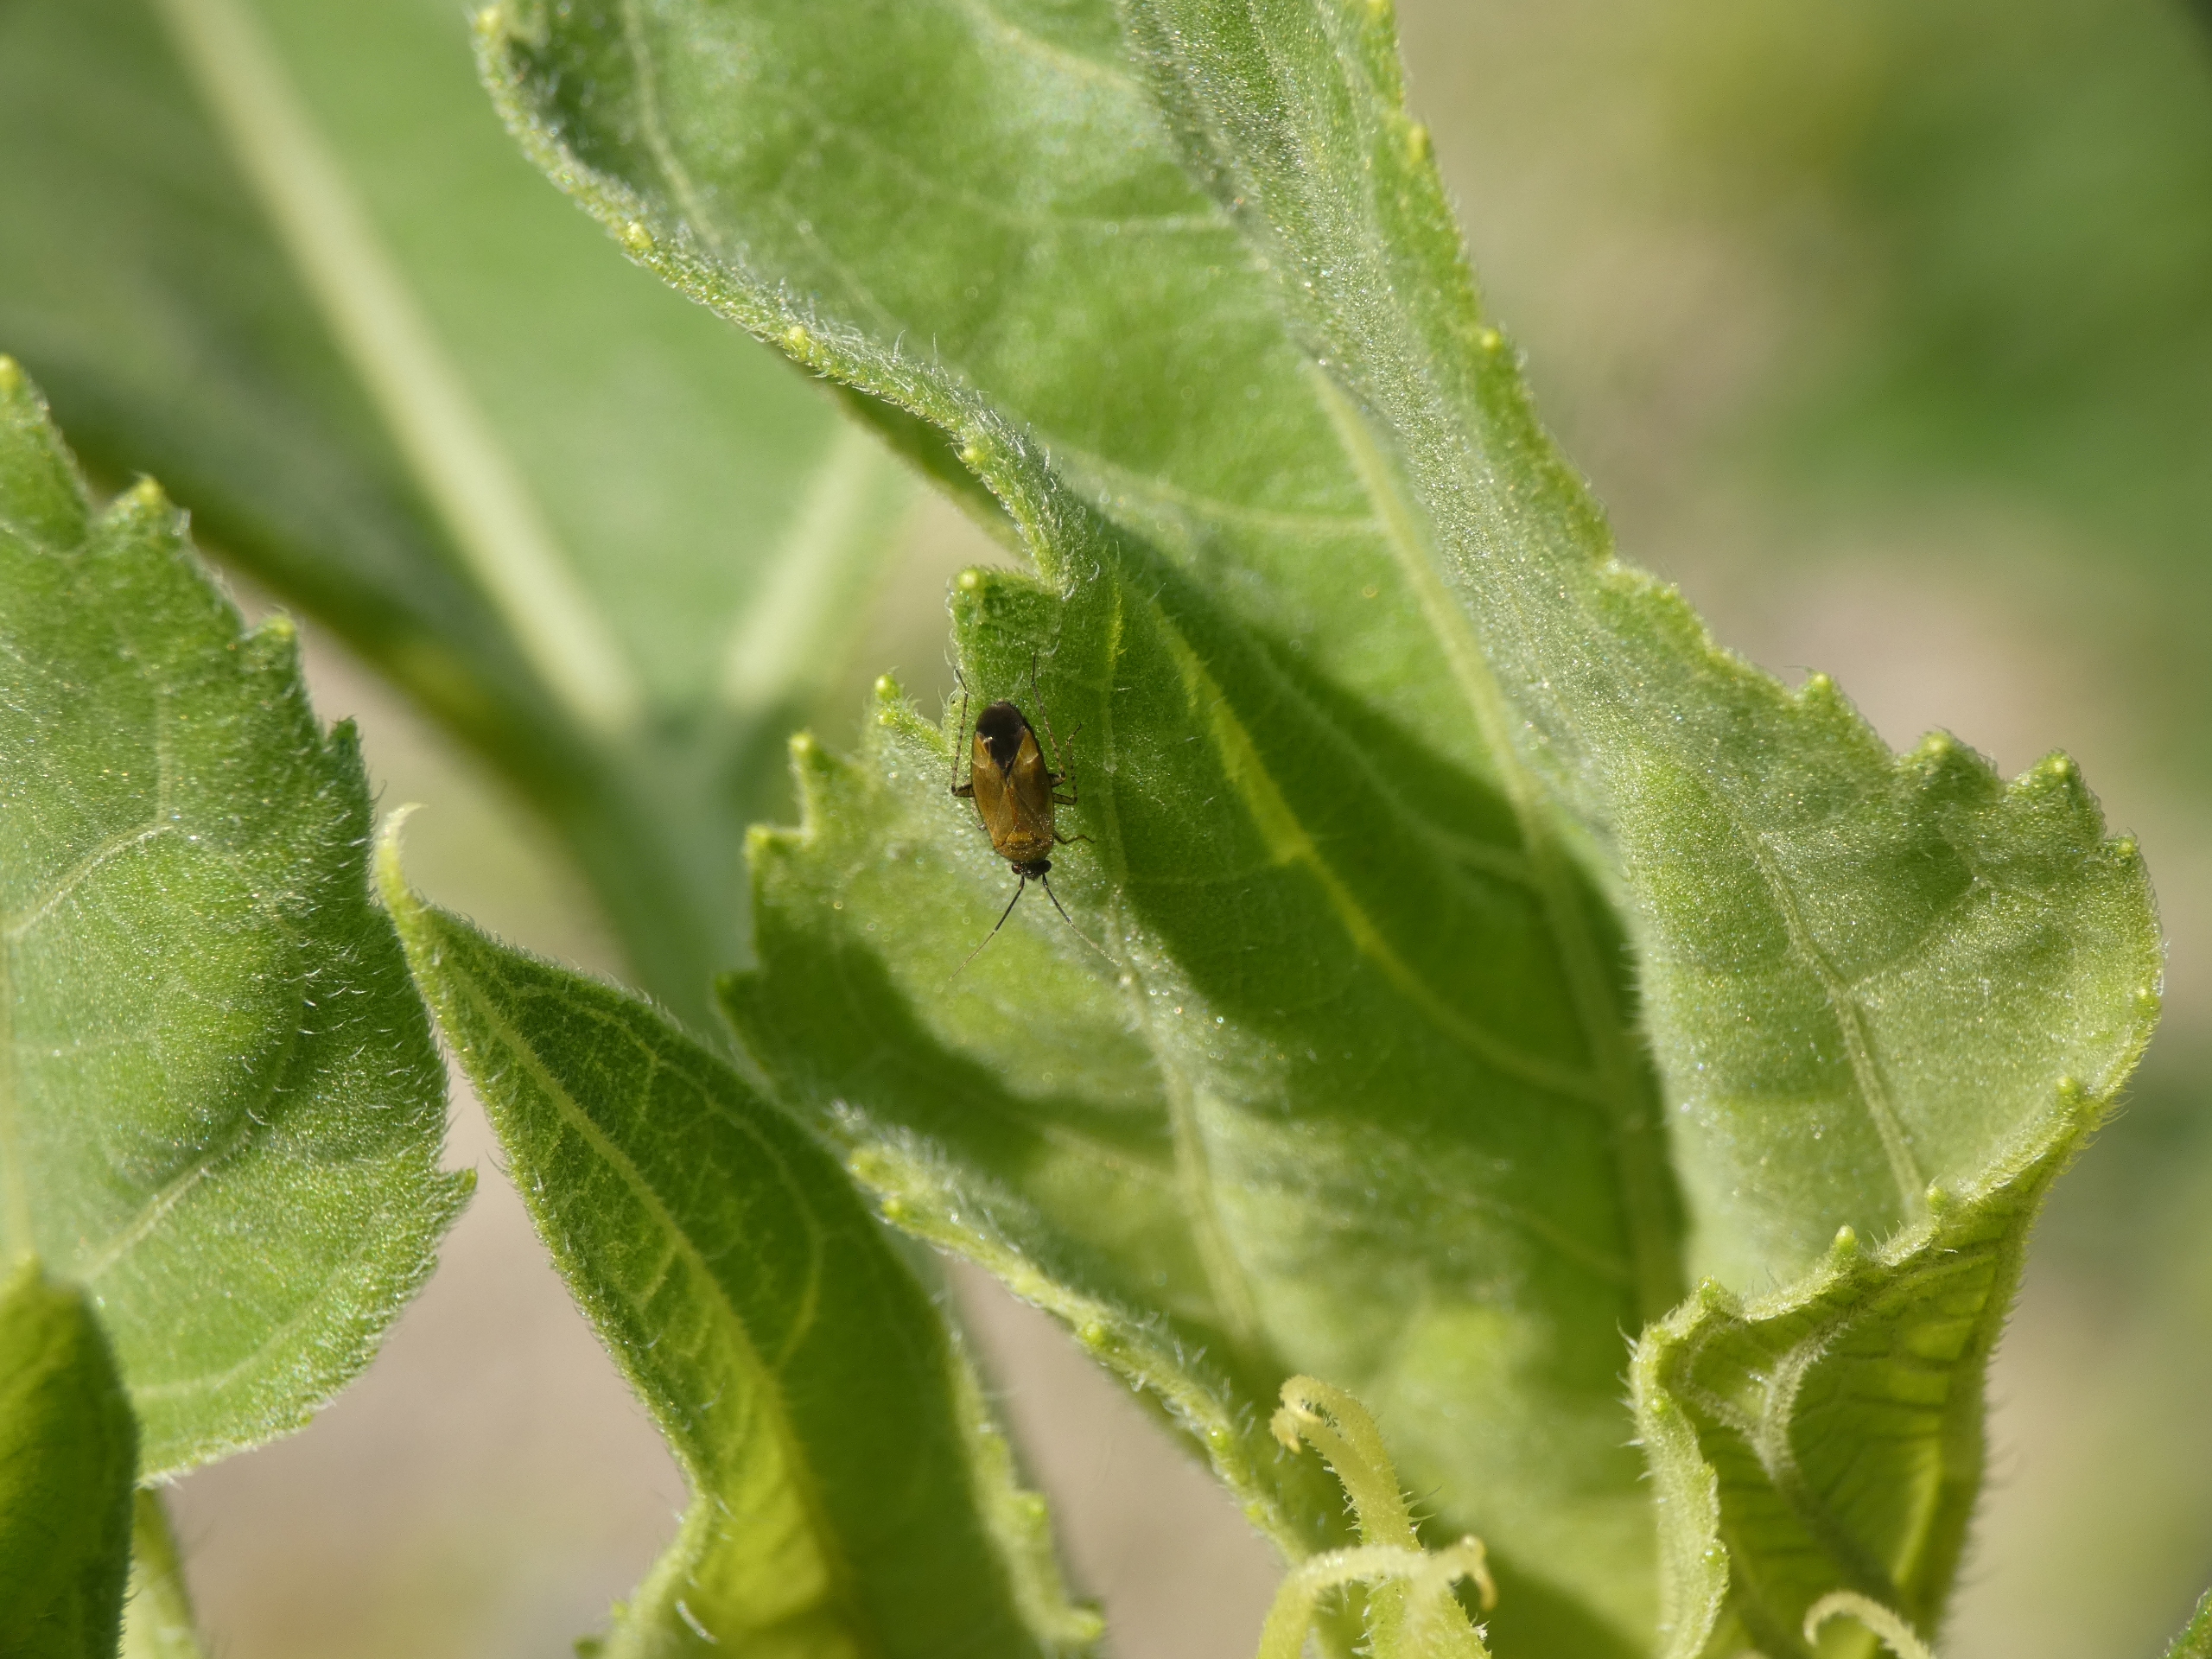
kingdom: Animalia
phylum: Arthropoda
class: Insecta
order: Hemiptera
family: Miridae
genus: Plagiognathus
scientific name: Plagiognathus arbustorum
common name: Almindelig nældeblomstertæge
